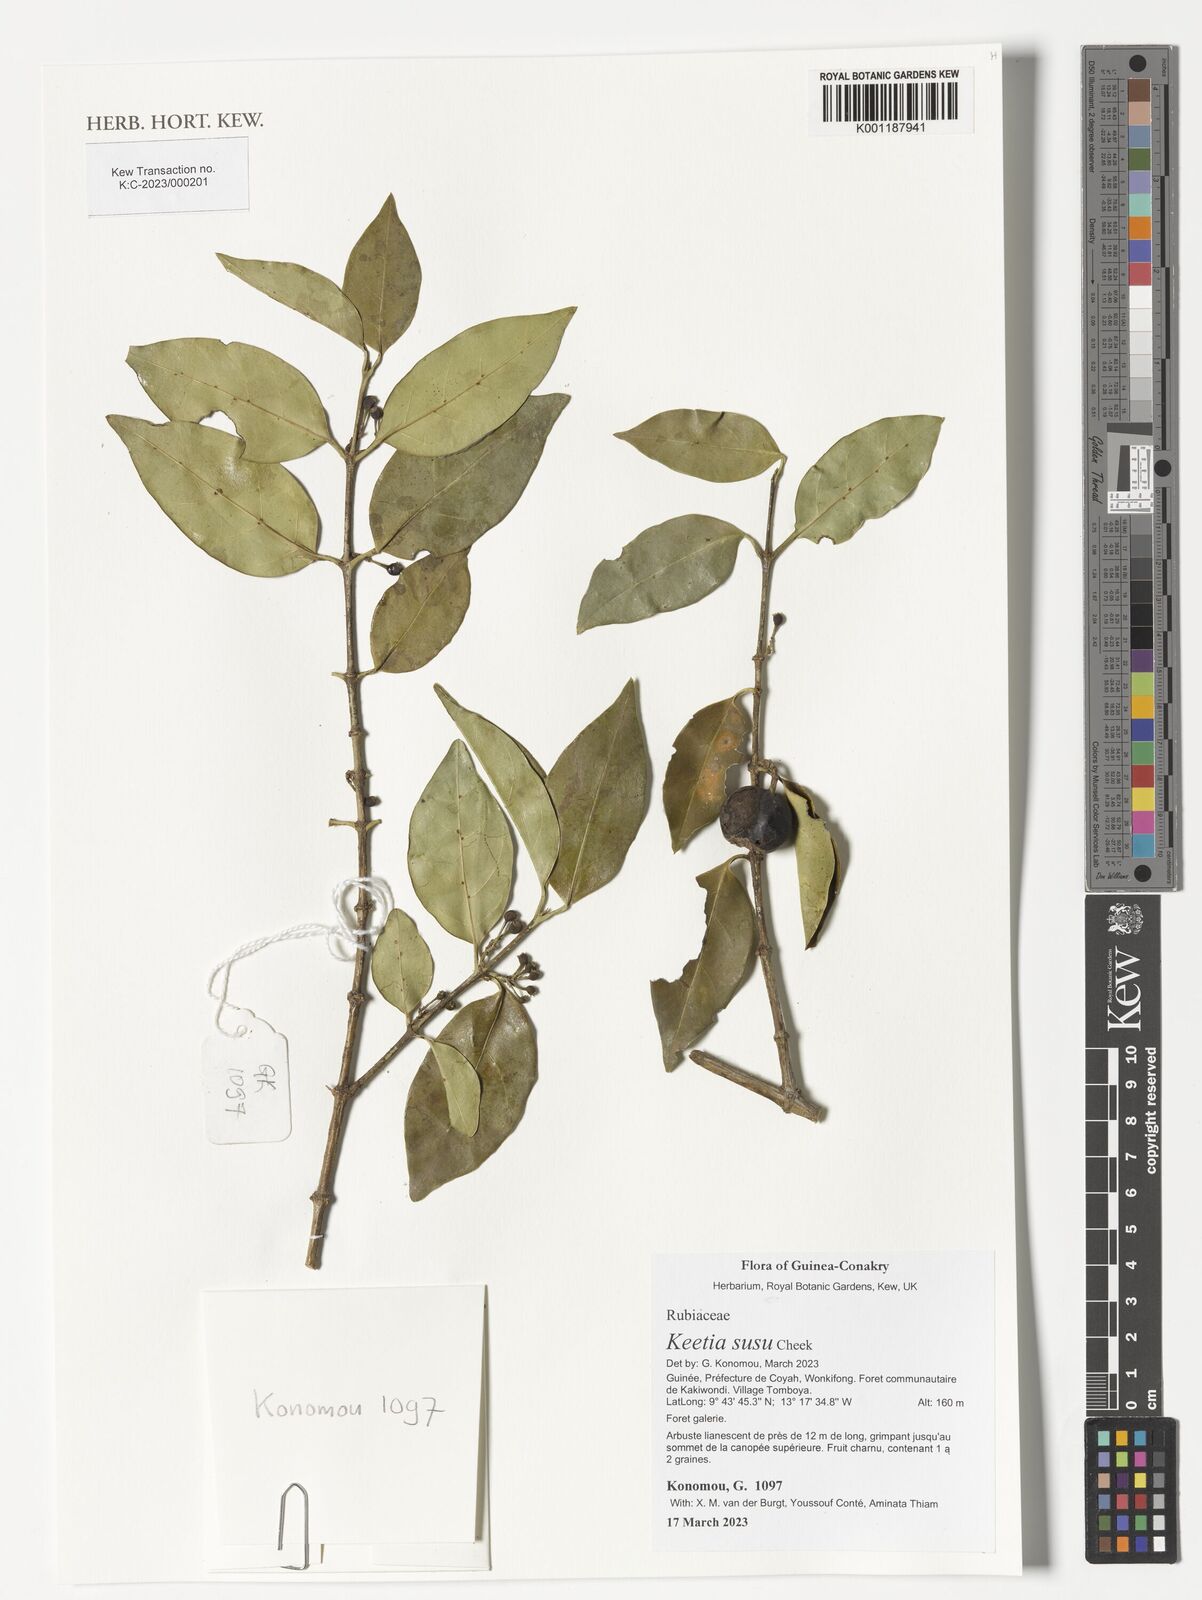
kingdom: Plantae
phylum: Tracheophyta
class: Magnoliopsida
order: Gentianales
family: Rubiaceae
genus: Keetia
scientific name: Keetia susu
